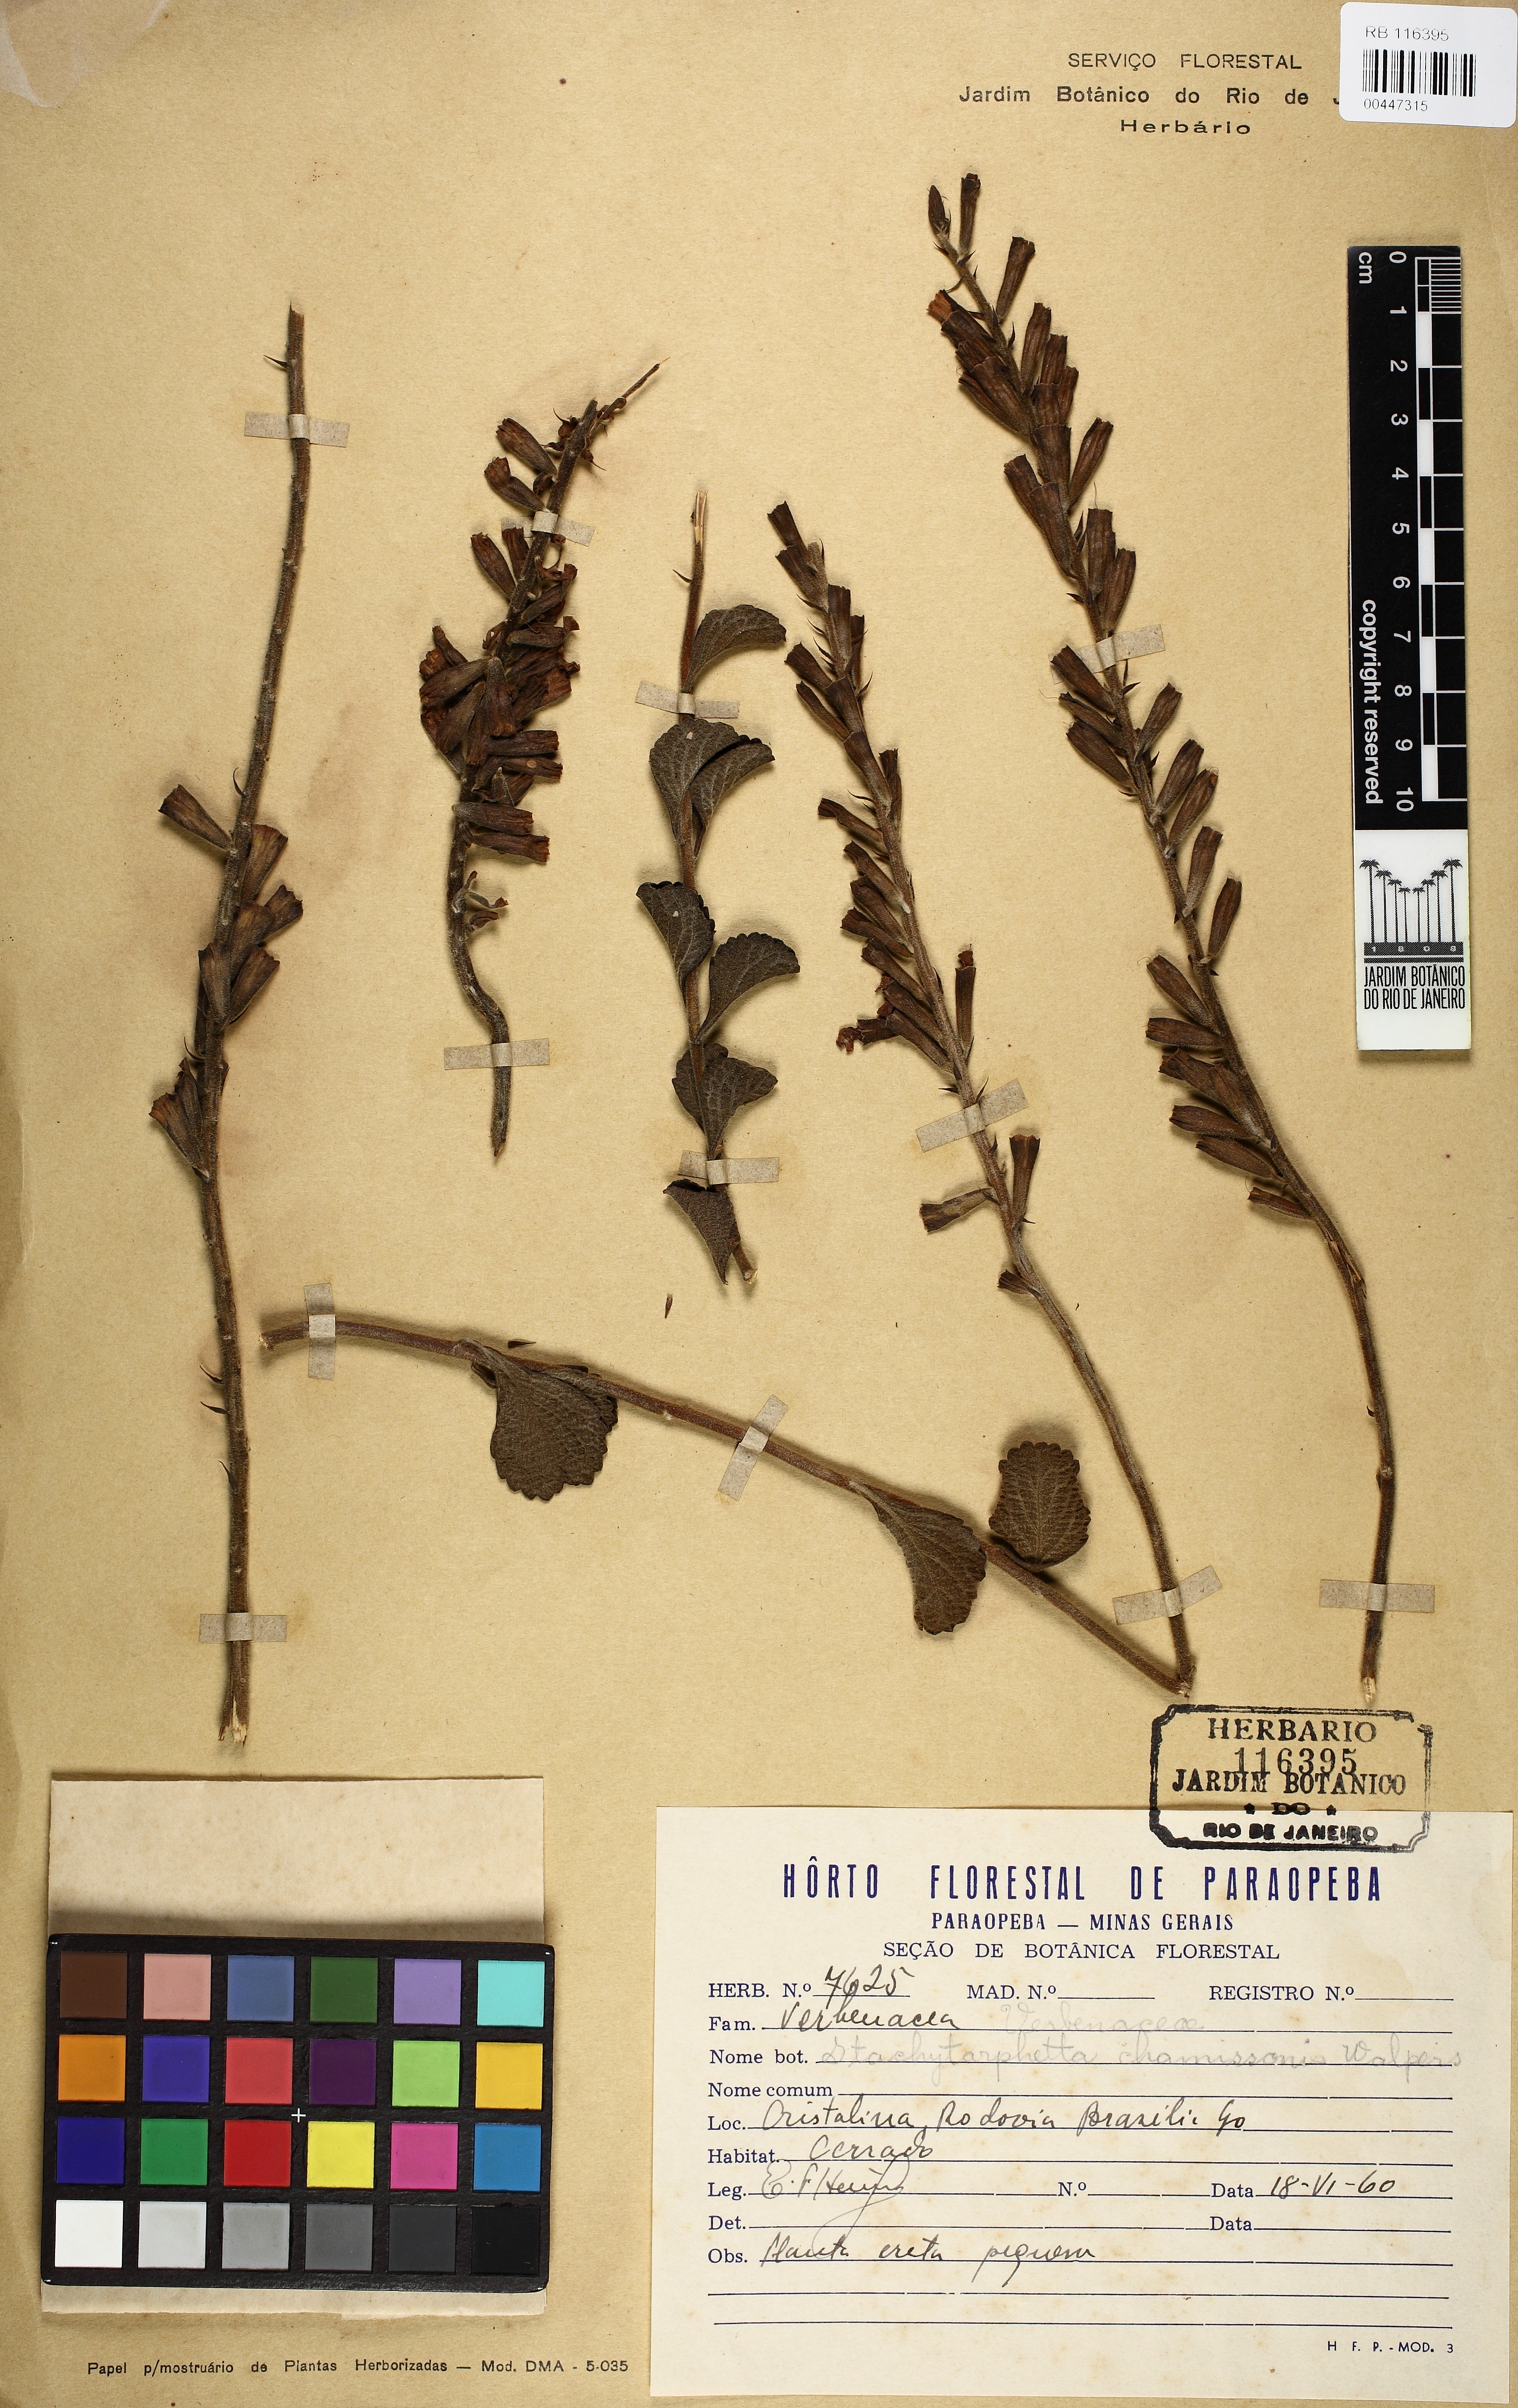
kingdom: Plantae
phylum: Tracheophyta
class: Magnoliopsida
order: Lamiales
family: Verbenaceae
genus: Stachytarpheta
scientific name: Stachytarpheta longispicata
